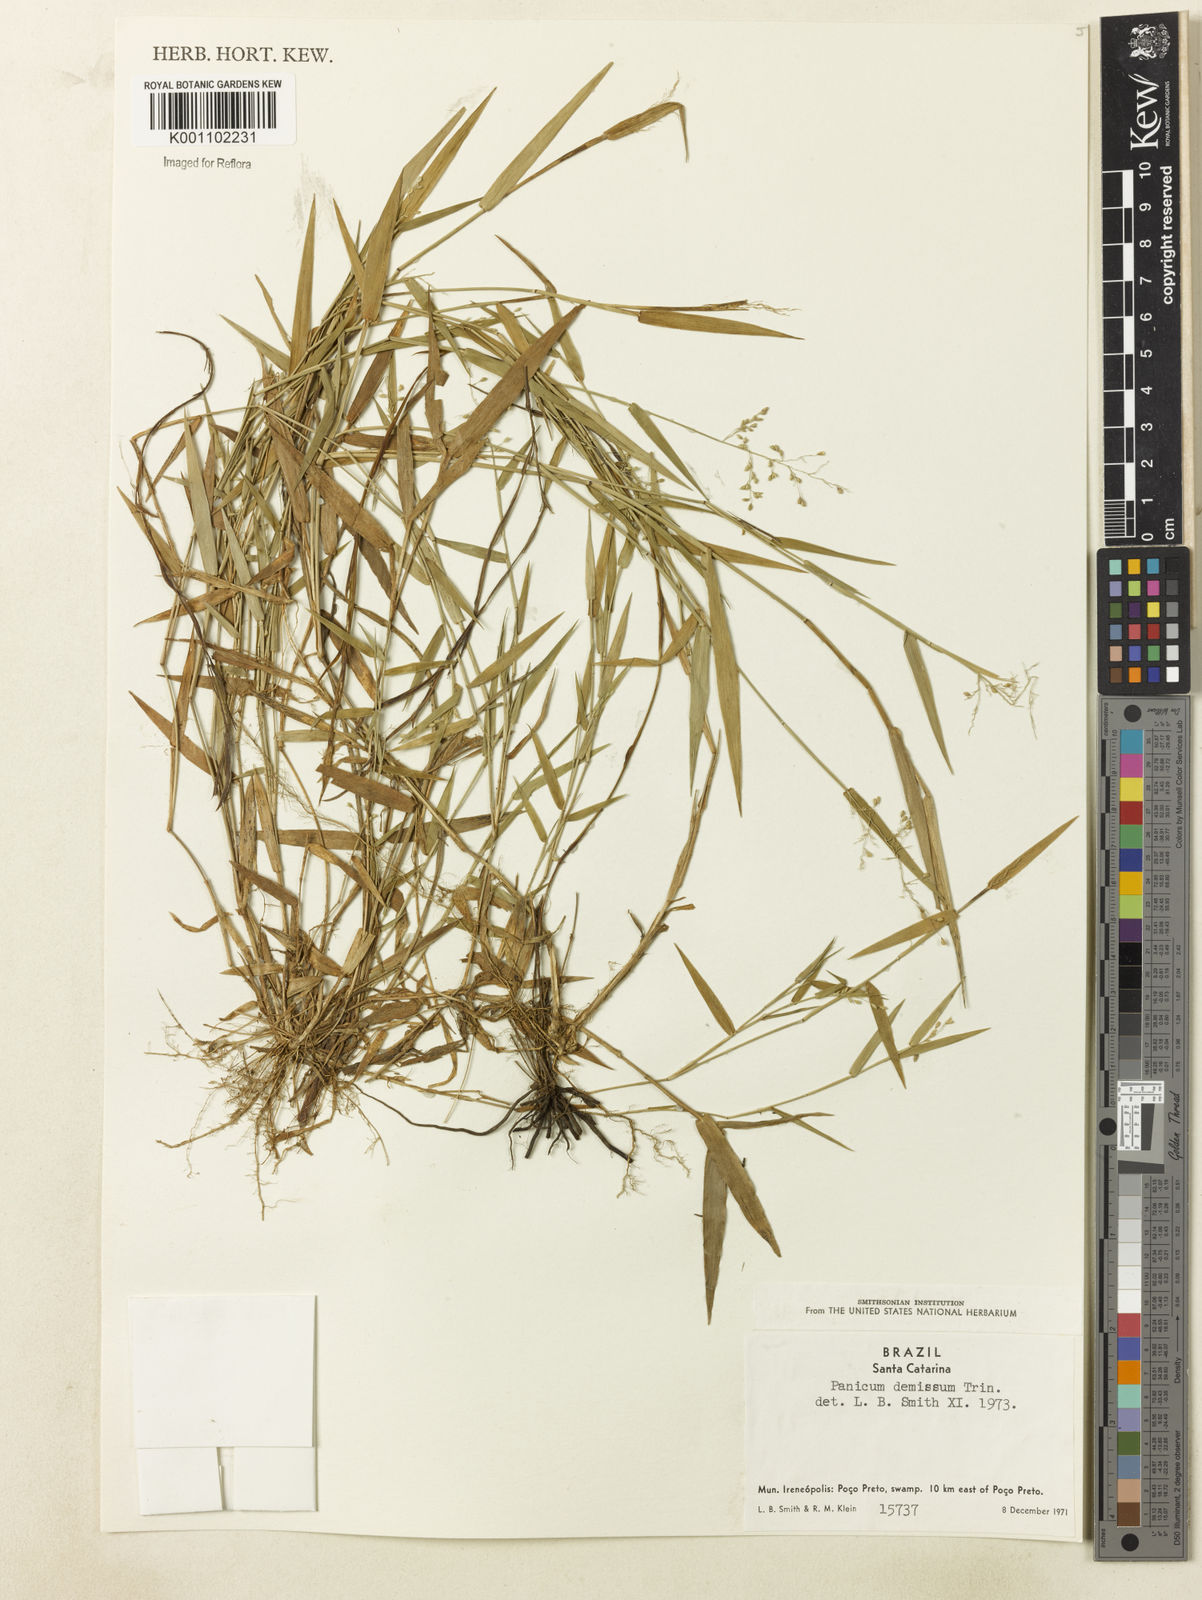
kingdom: Plantae
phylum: Tracheophyta
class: Liliopsida
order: Poales
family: Poaceae
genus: Dichanthelium
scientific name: Dichanthelium sabulorum
